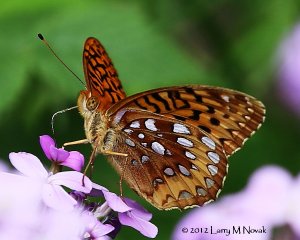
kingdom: Animalia
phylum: Arthropoda
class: Insecta
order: Lepidoptera
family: Nymphalidae
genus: Speyeria
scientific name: Speyeria cybele
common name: Great Spangled Fritillary
